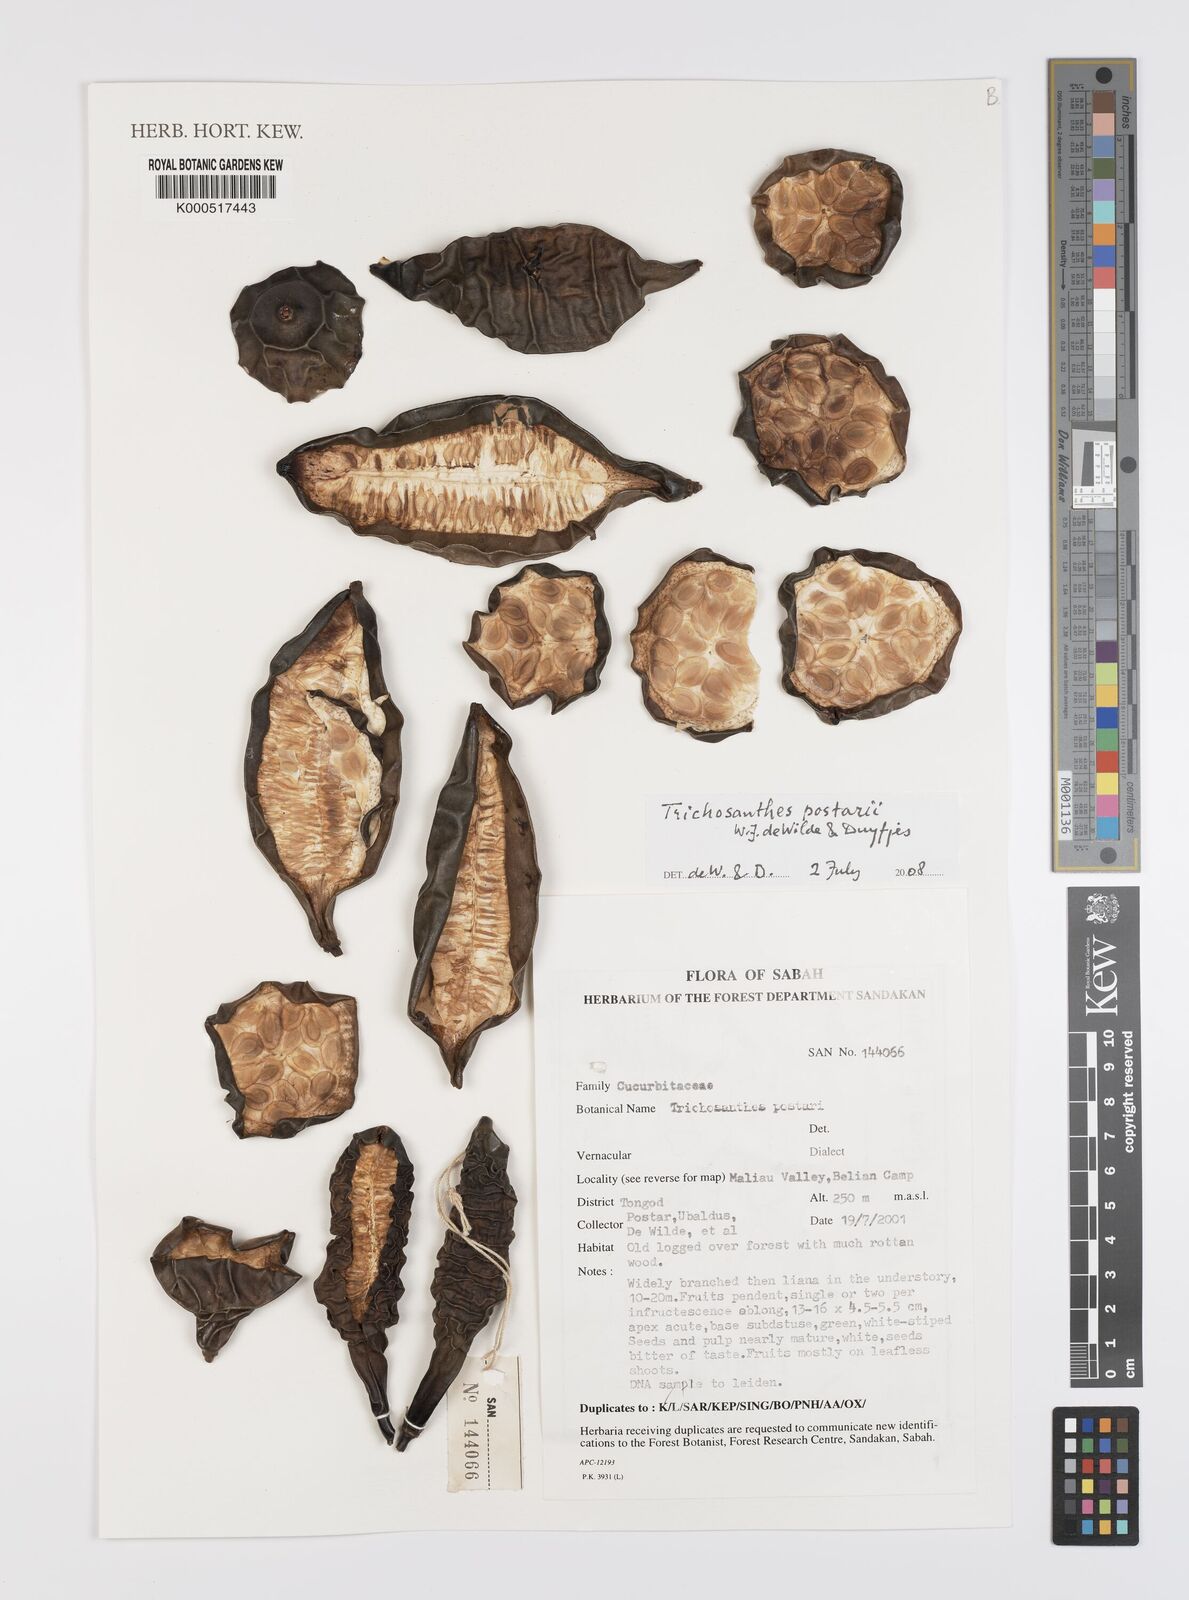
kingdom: Plantae
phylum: Tracheophyta
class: Magnoliopsida
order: Cucurbitales
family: Cucurbitaceae
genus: Trichosanthes
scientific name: Trichosanthes postarii
